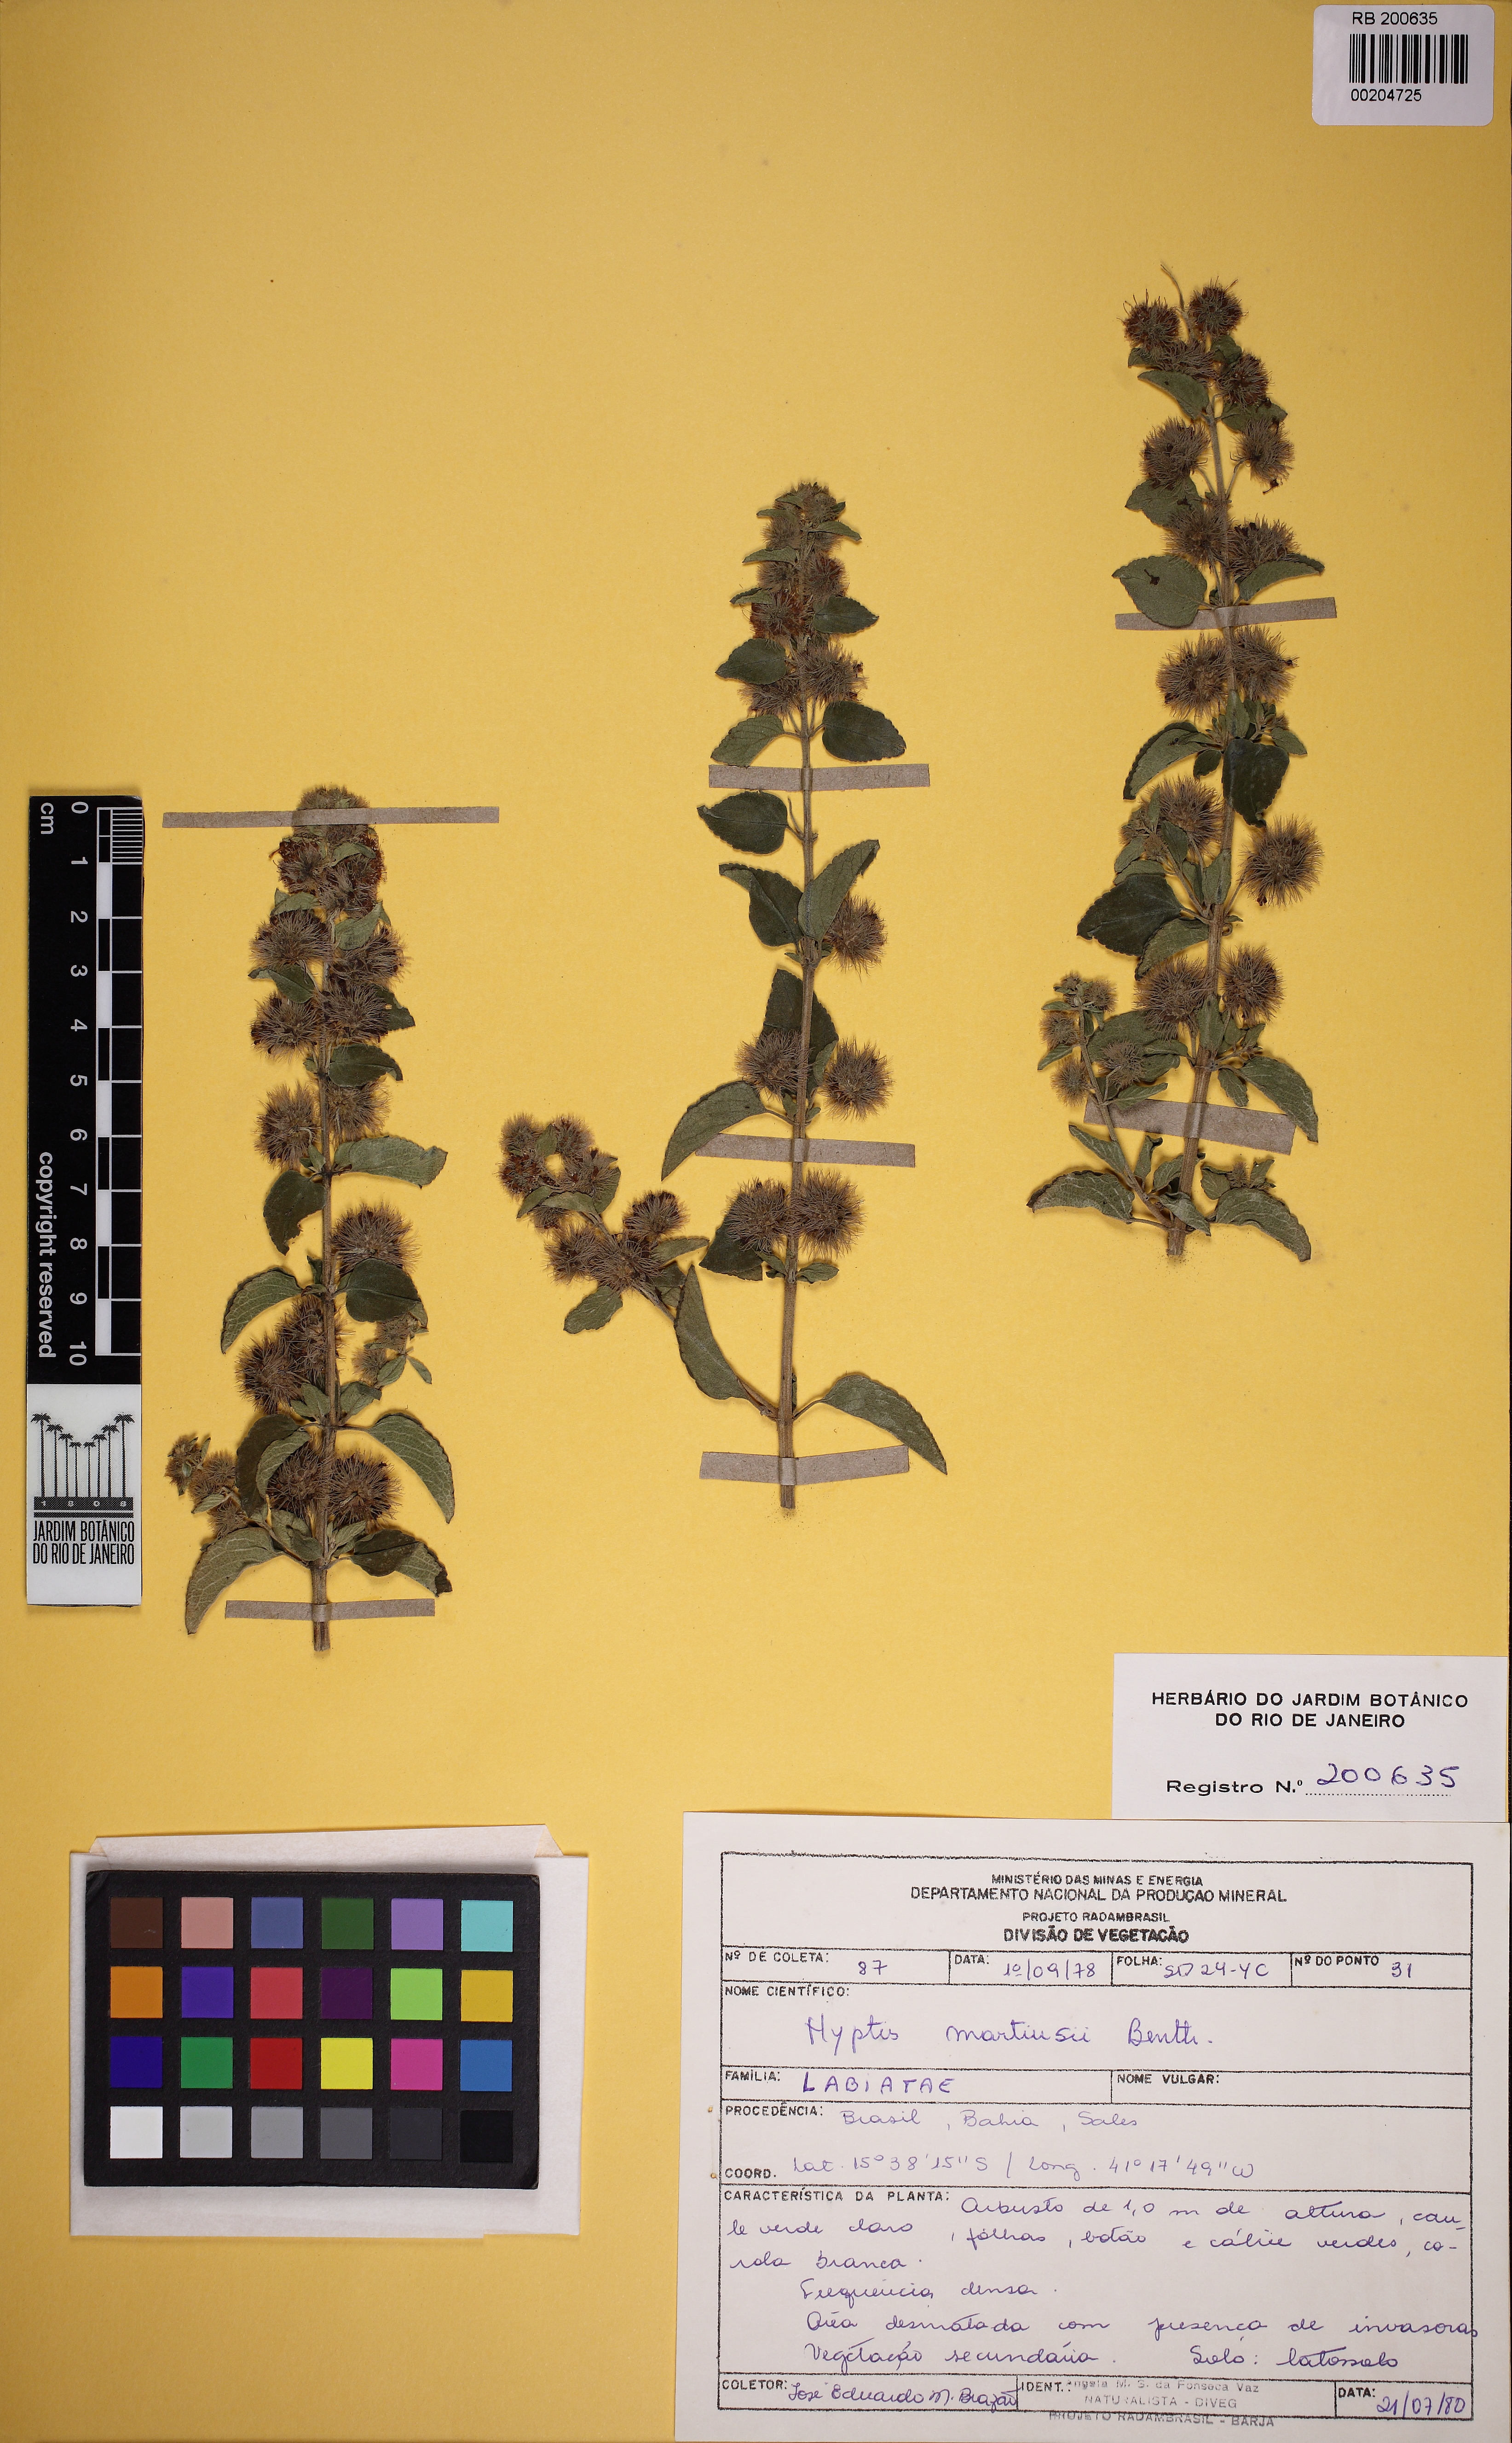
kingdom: Plantae
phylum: Tracheophyta
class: Magnoliopsida
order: Lamiales
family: Lamiaceae
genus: Medusantha
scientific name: Medusantha martiusii
